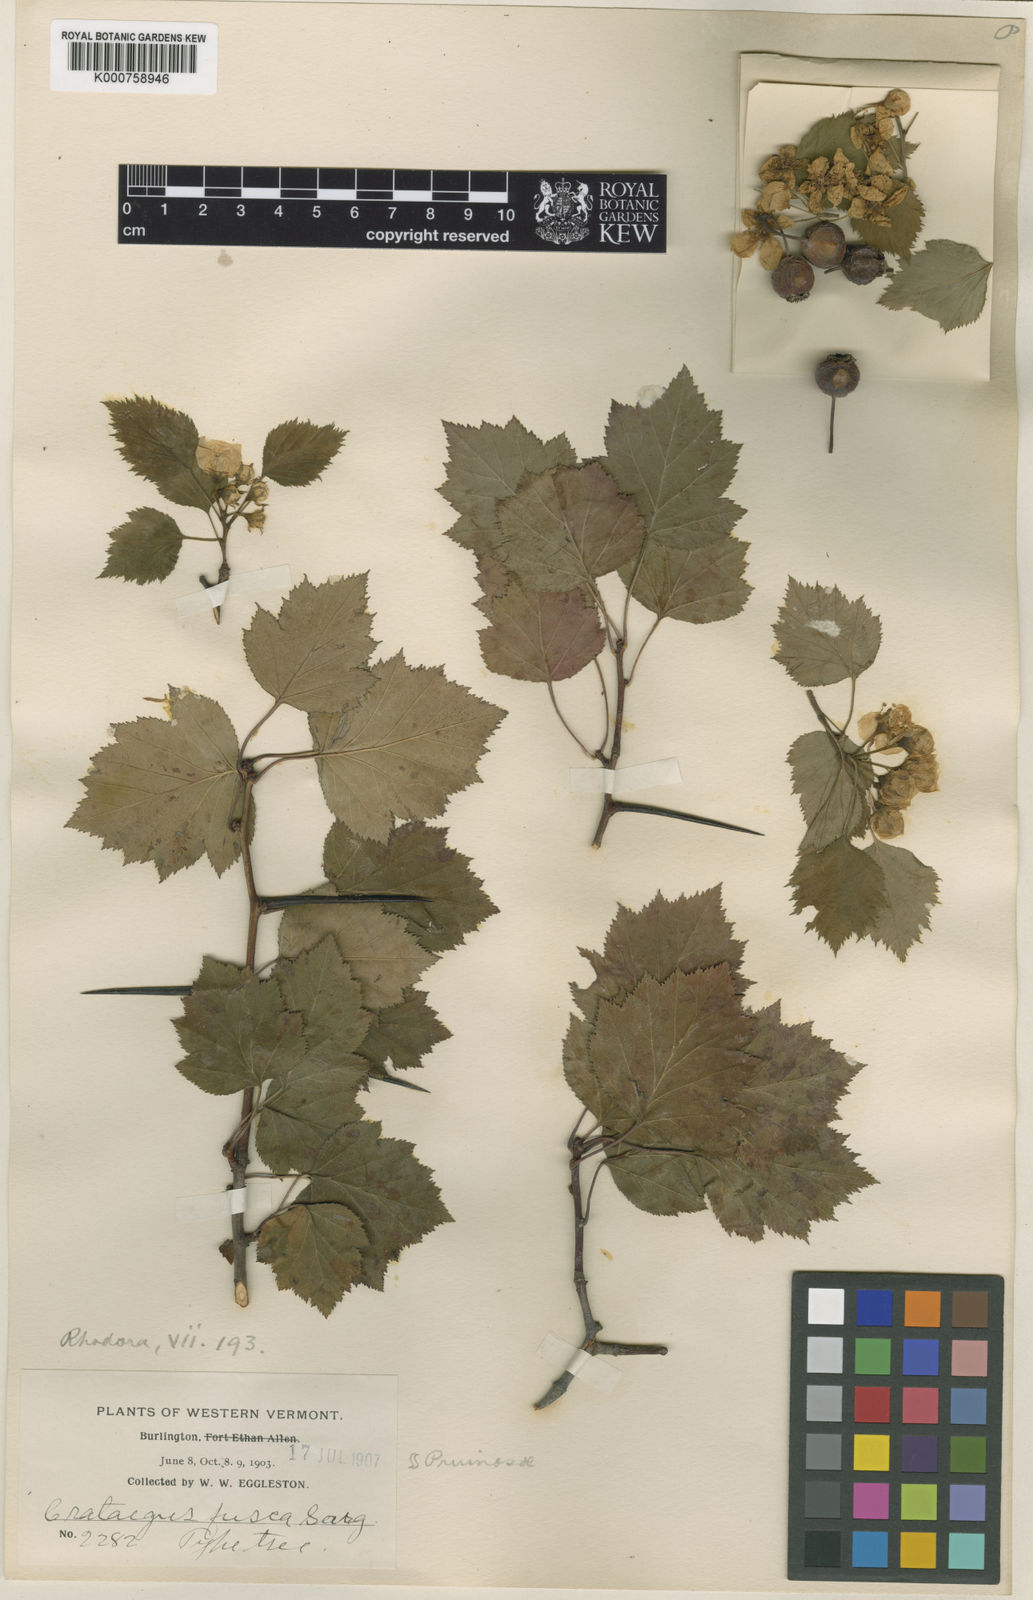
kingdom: Plantae
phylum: Tracheophyta
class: Magnoliopsida
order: Rosales
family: Rosaceae
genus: Crataegus
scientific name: Crataegus fusca
